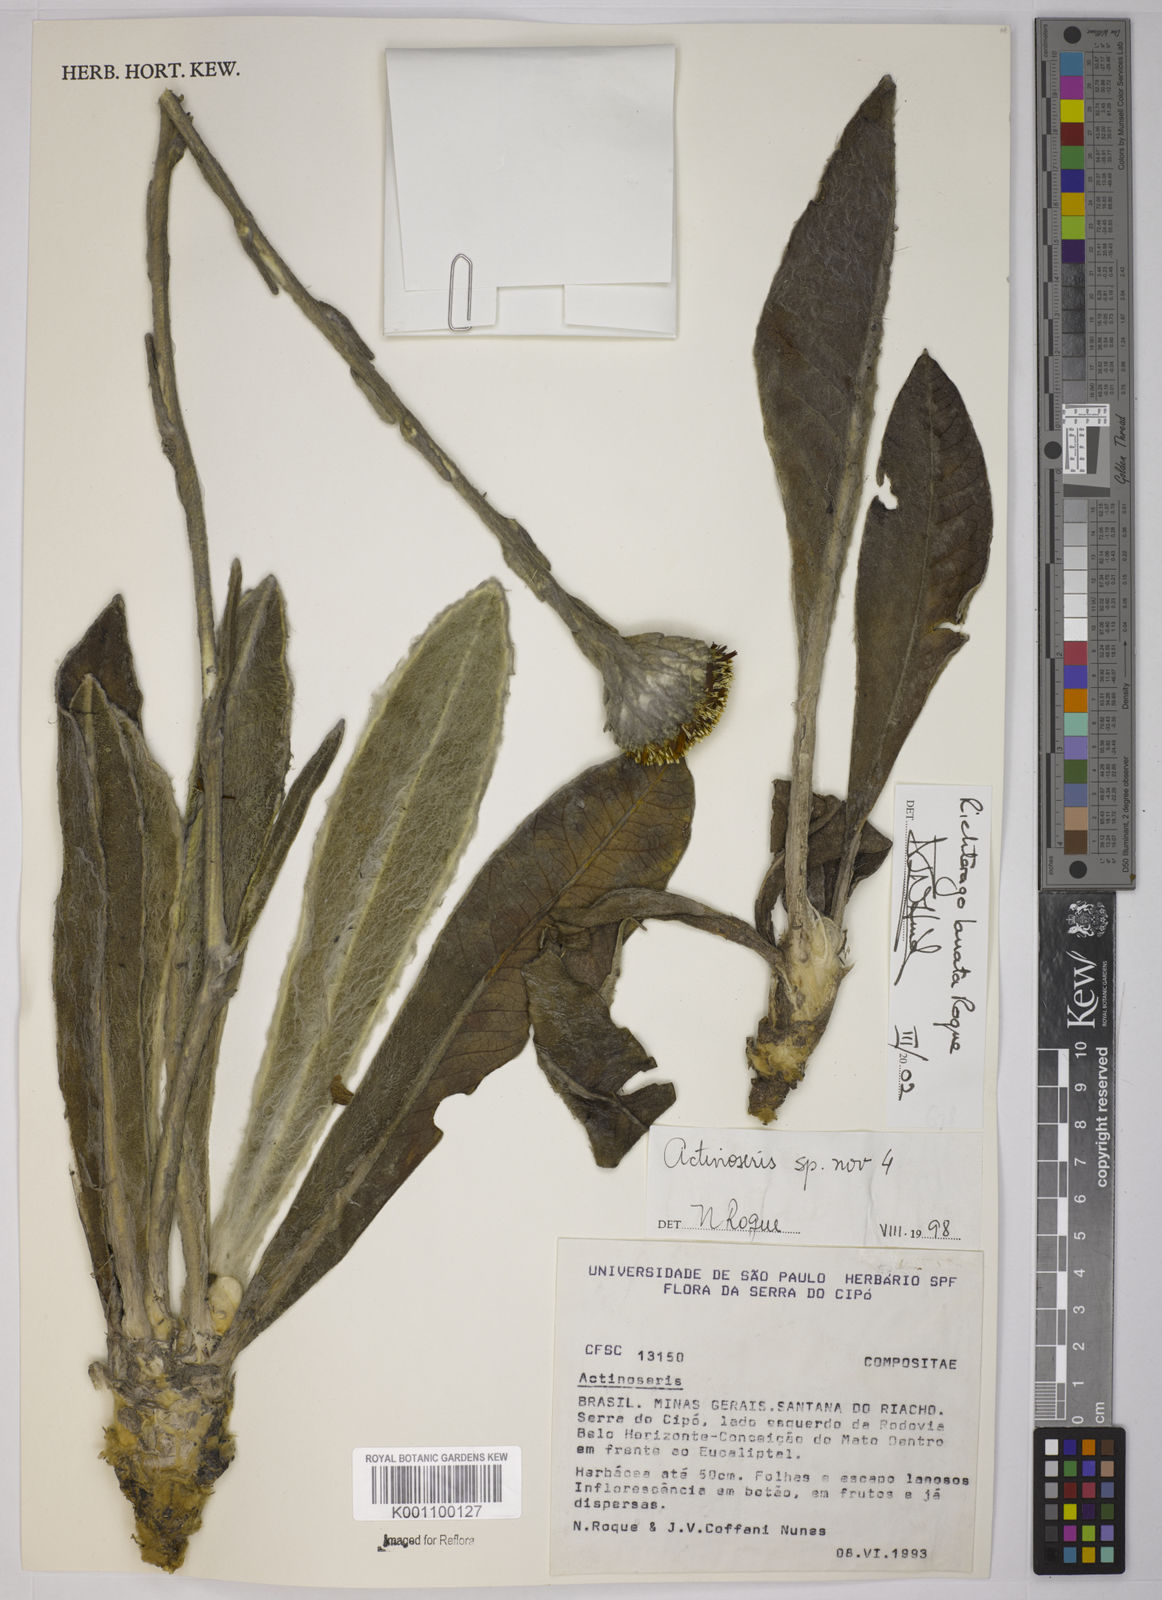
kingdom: Plantae
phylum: Tracheophyta
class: Magnoliopsida
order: Asterales
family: Asteraceae
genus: Richterago
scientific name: Richterago lanata
